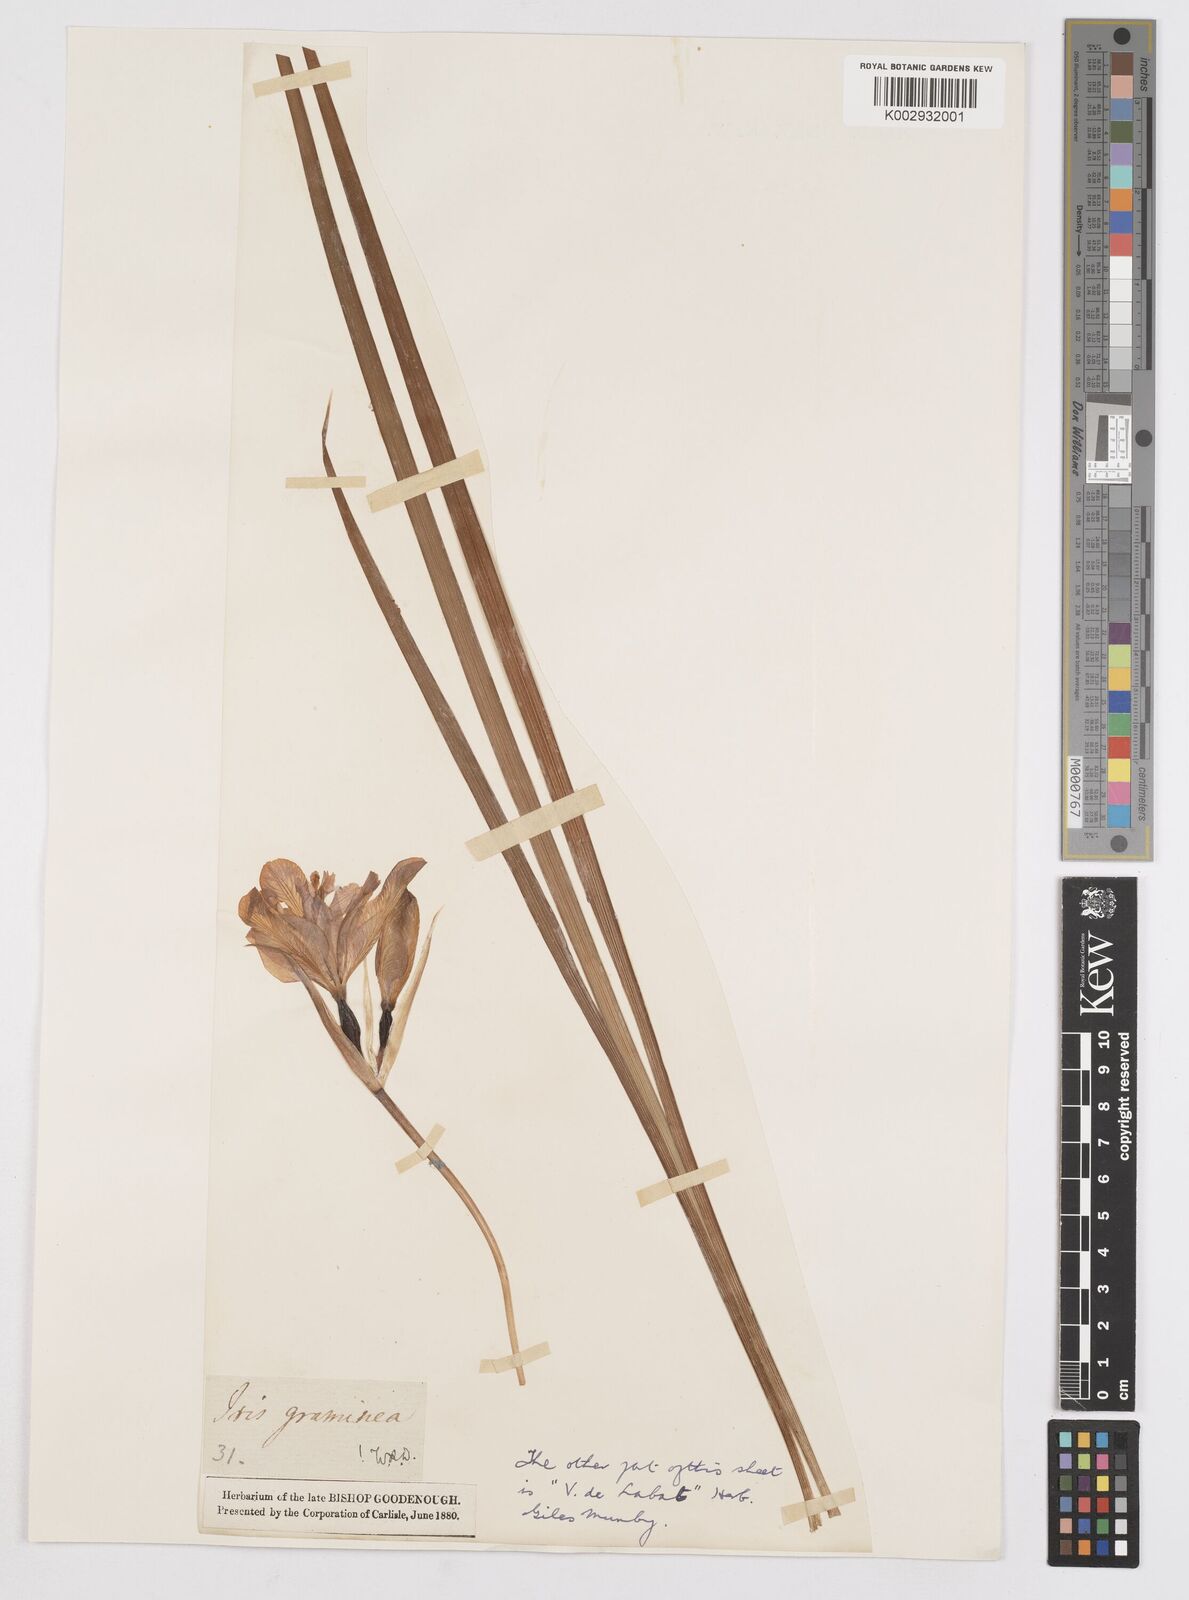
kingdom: Plantae
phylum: Tracheophyta
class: Liliopsida
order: Asparagales
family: Iridaceae
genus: Iris
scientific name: Iris graminea
